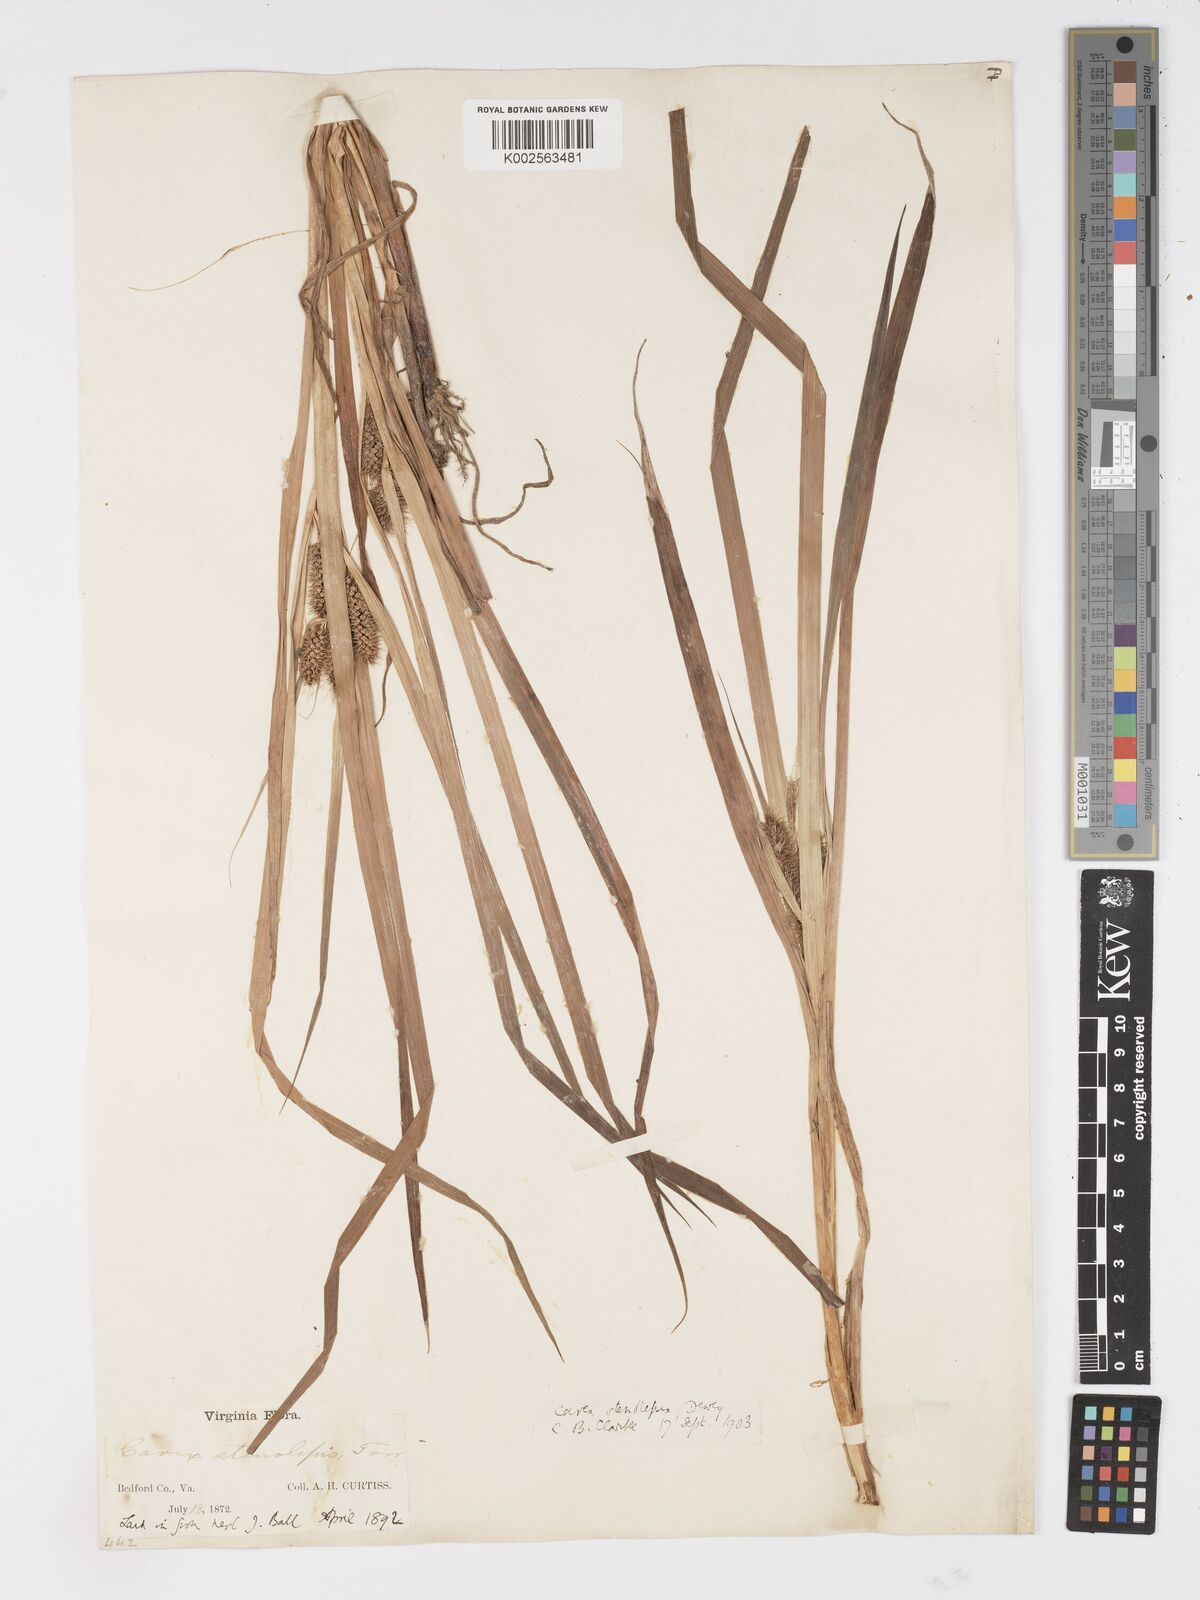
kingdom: Plantae
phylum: Tracheophyta
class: Liliopsida
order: Poales
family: Cyperaceae
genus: Carex
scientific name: Carex frankii
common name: Frank's sedge
